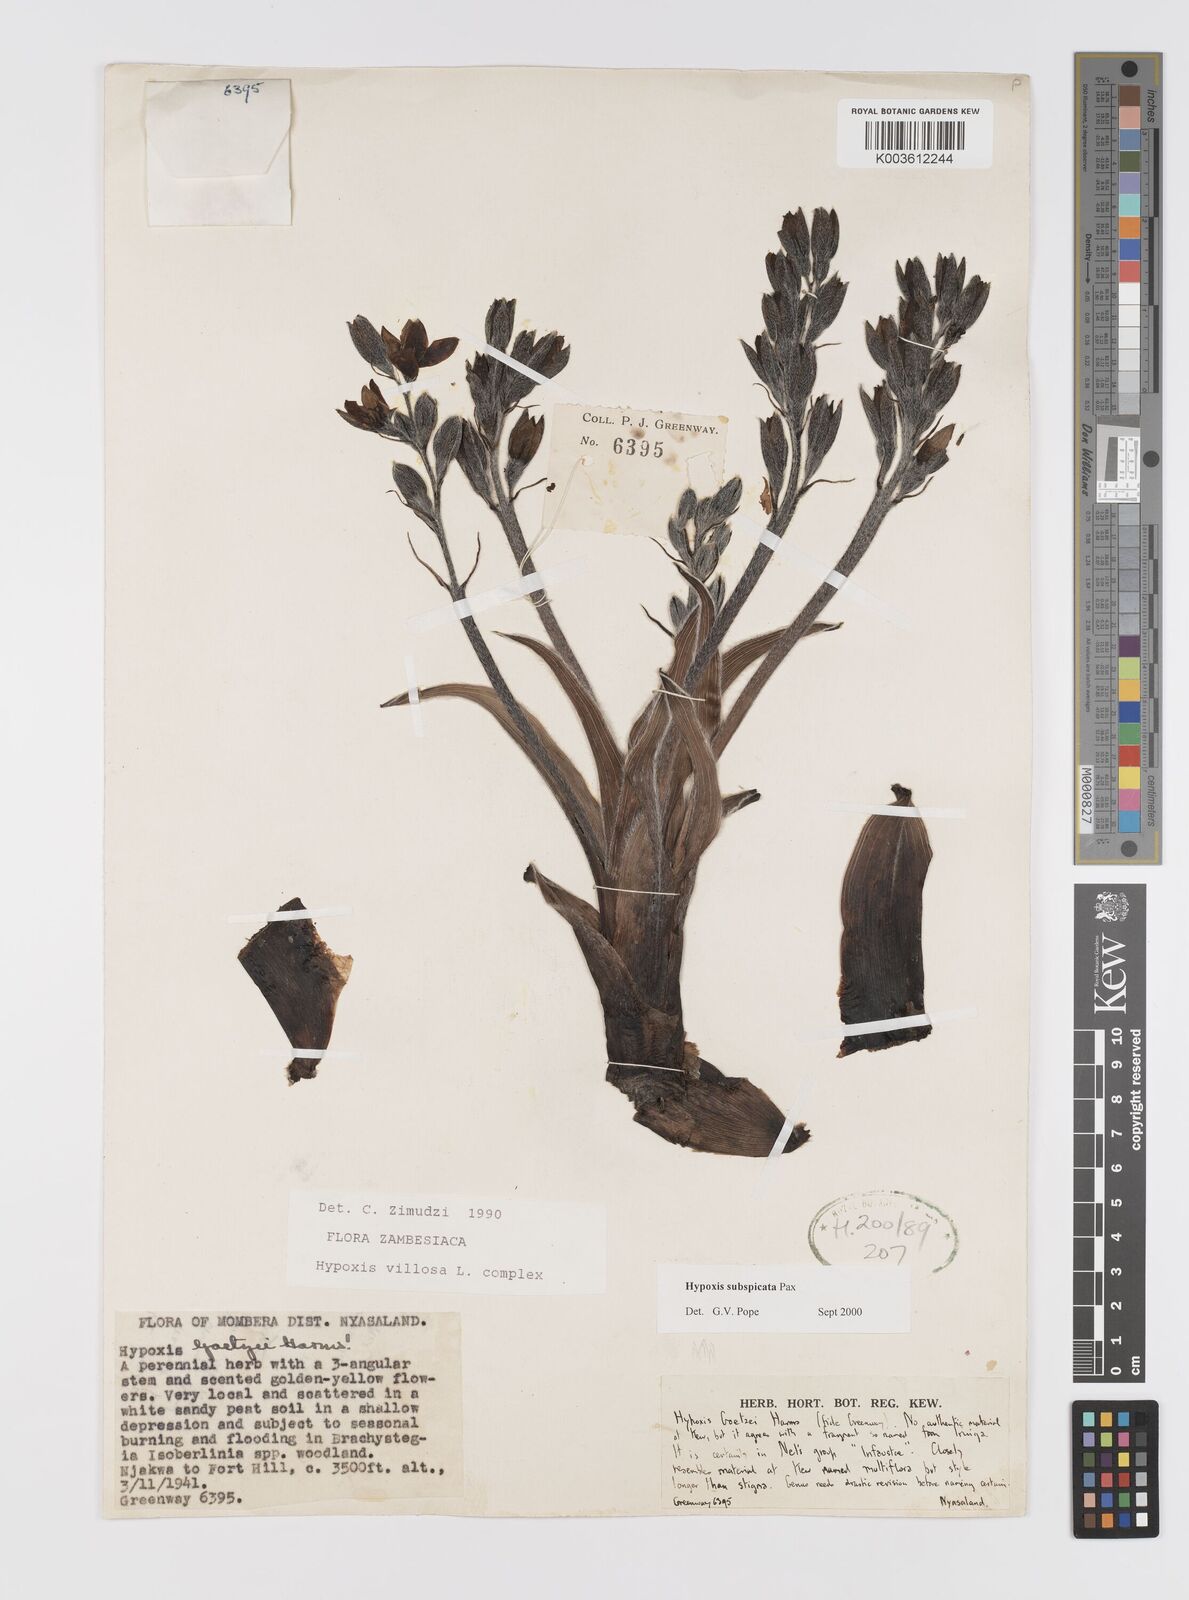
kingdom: Plantae
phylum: Tracheophyta
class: Liliopsida
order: Asparagales
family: Hypoxidaceae
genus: Hypoxis
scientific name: Hypoxis polystachya
